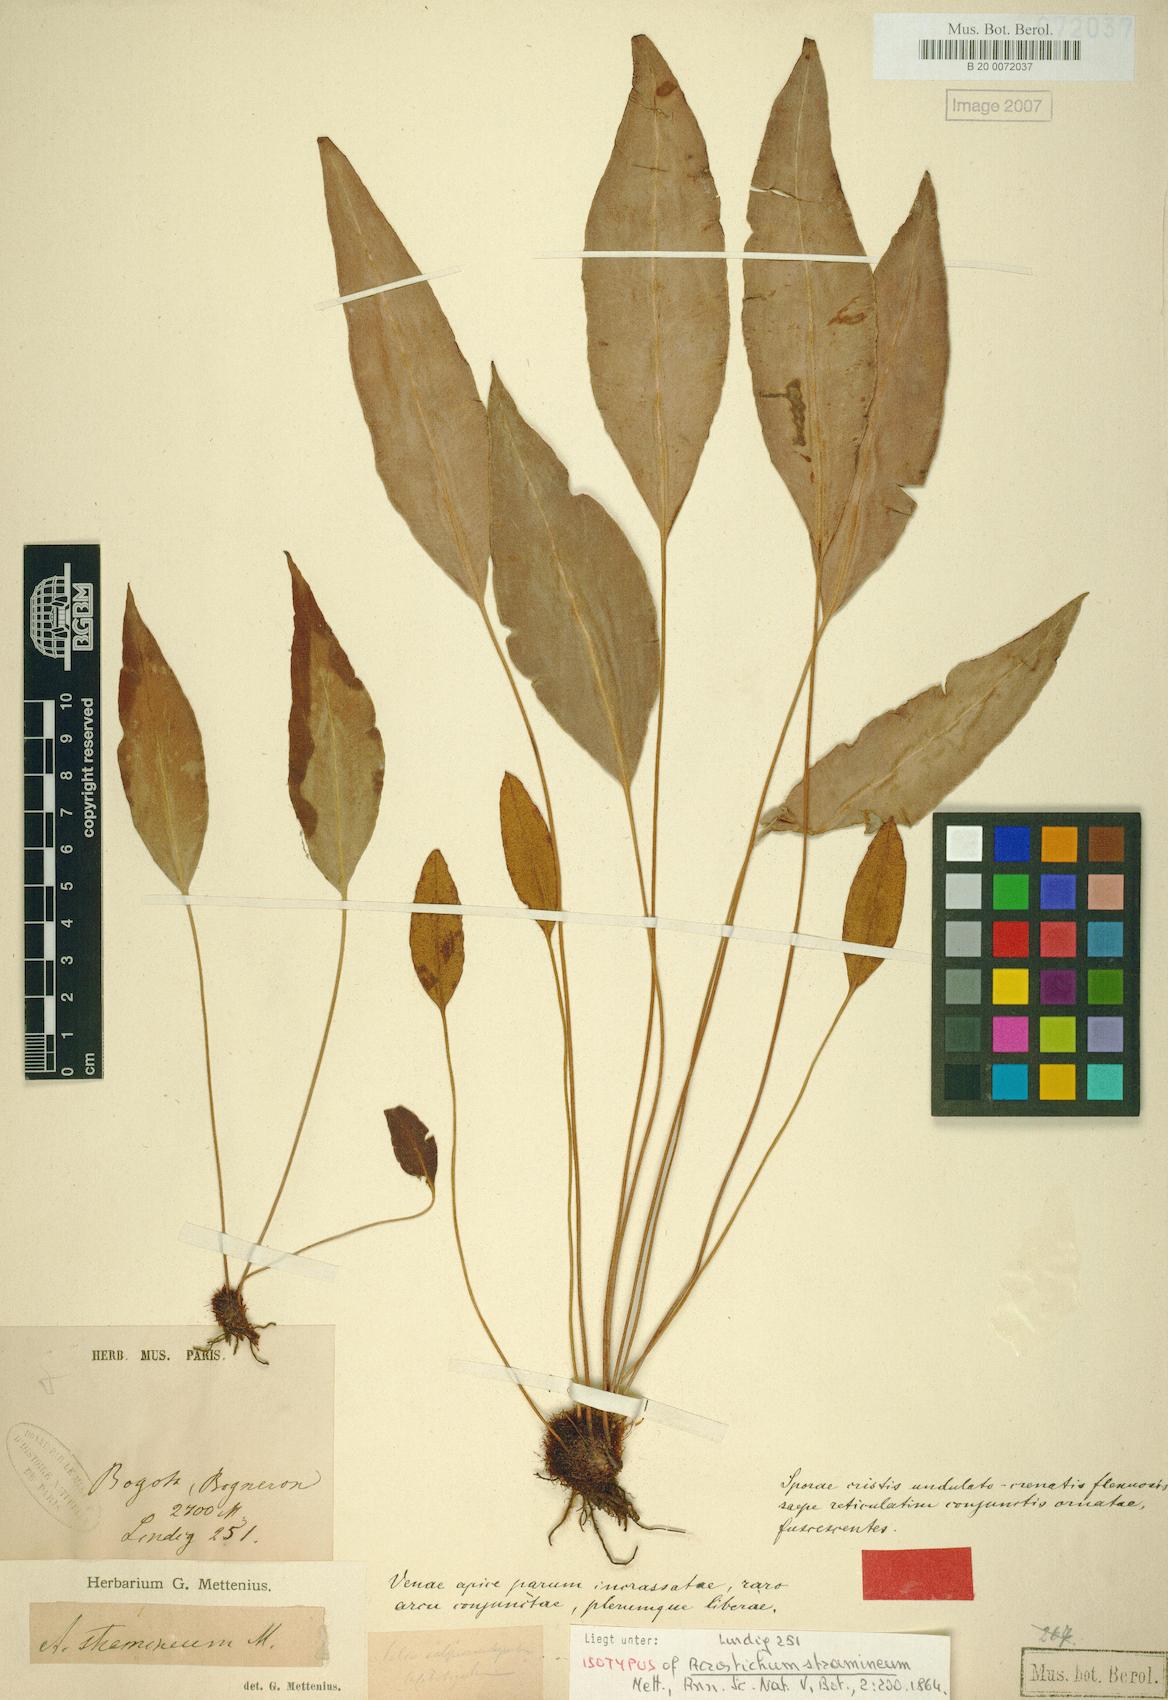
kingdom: Plantae
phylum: Tracheophyta
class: Polypodiopsida
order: Polypodiales
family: Dryopteridaceae
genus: Elaphoglossum
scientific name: Elaphoglossum tambillense
